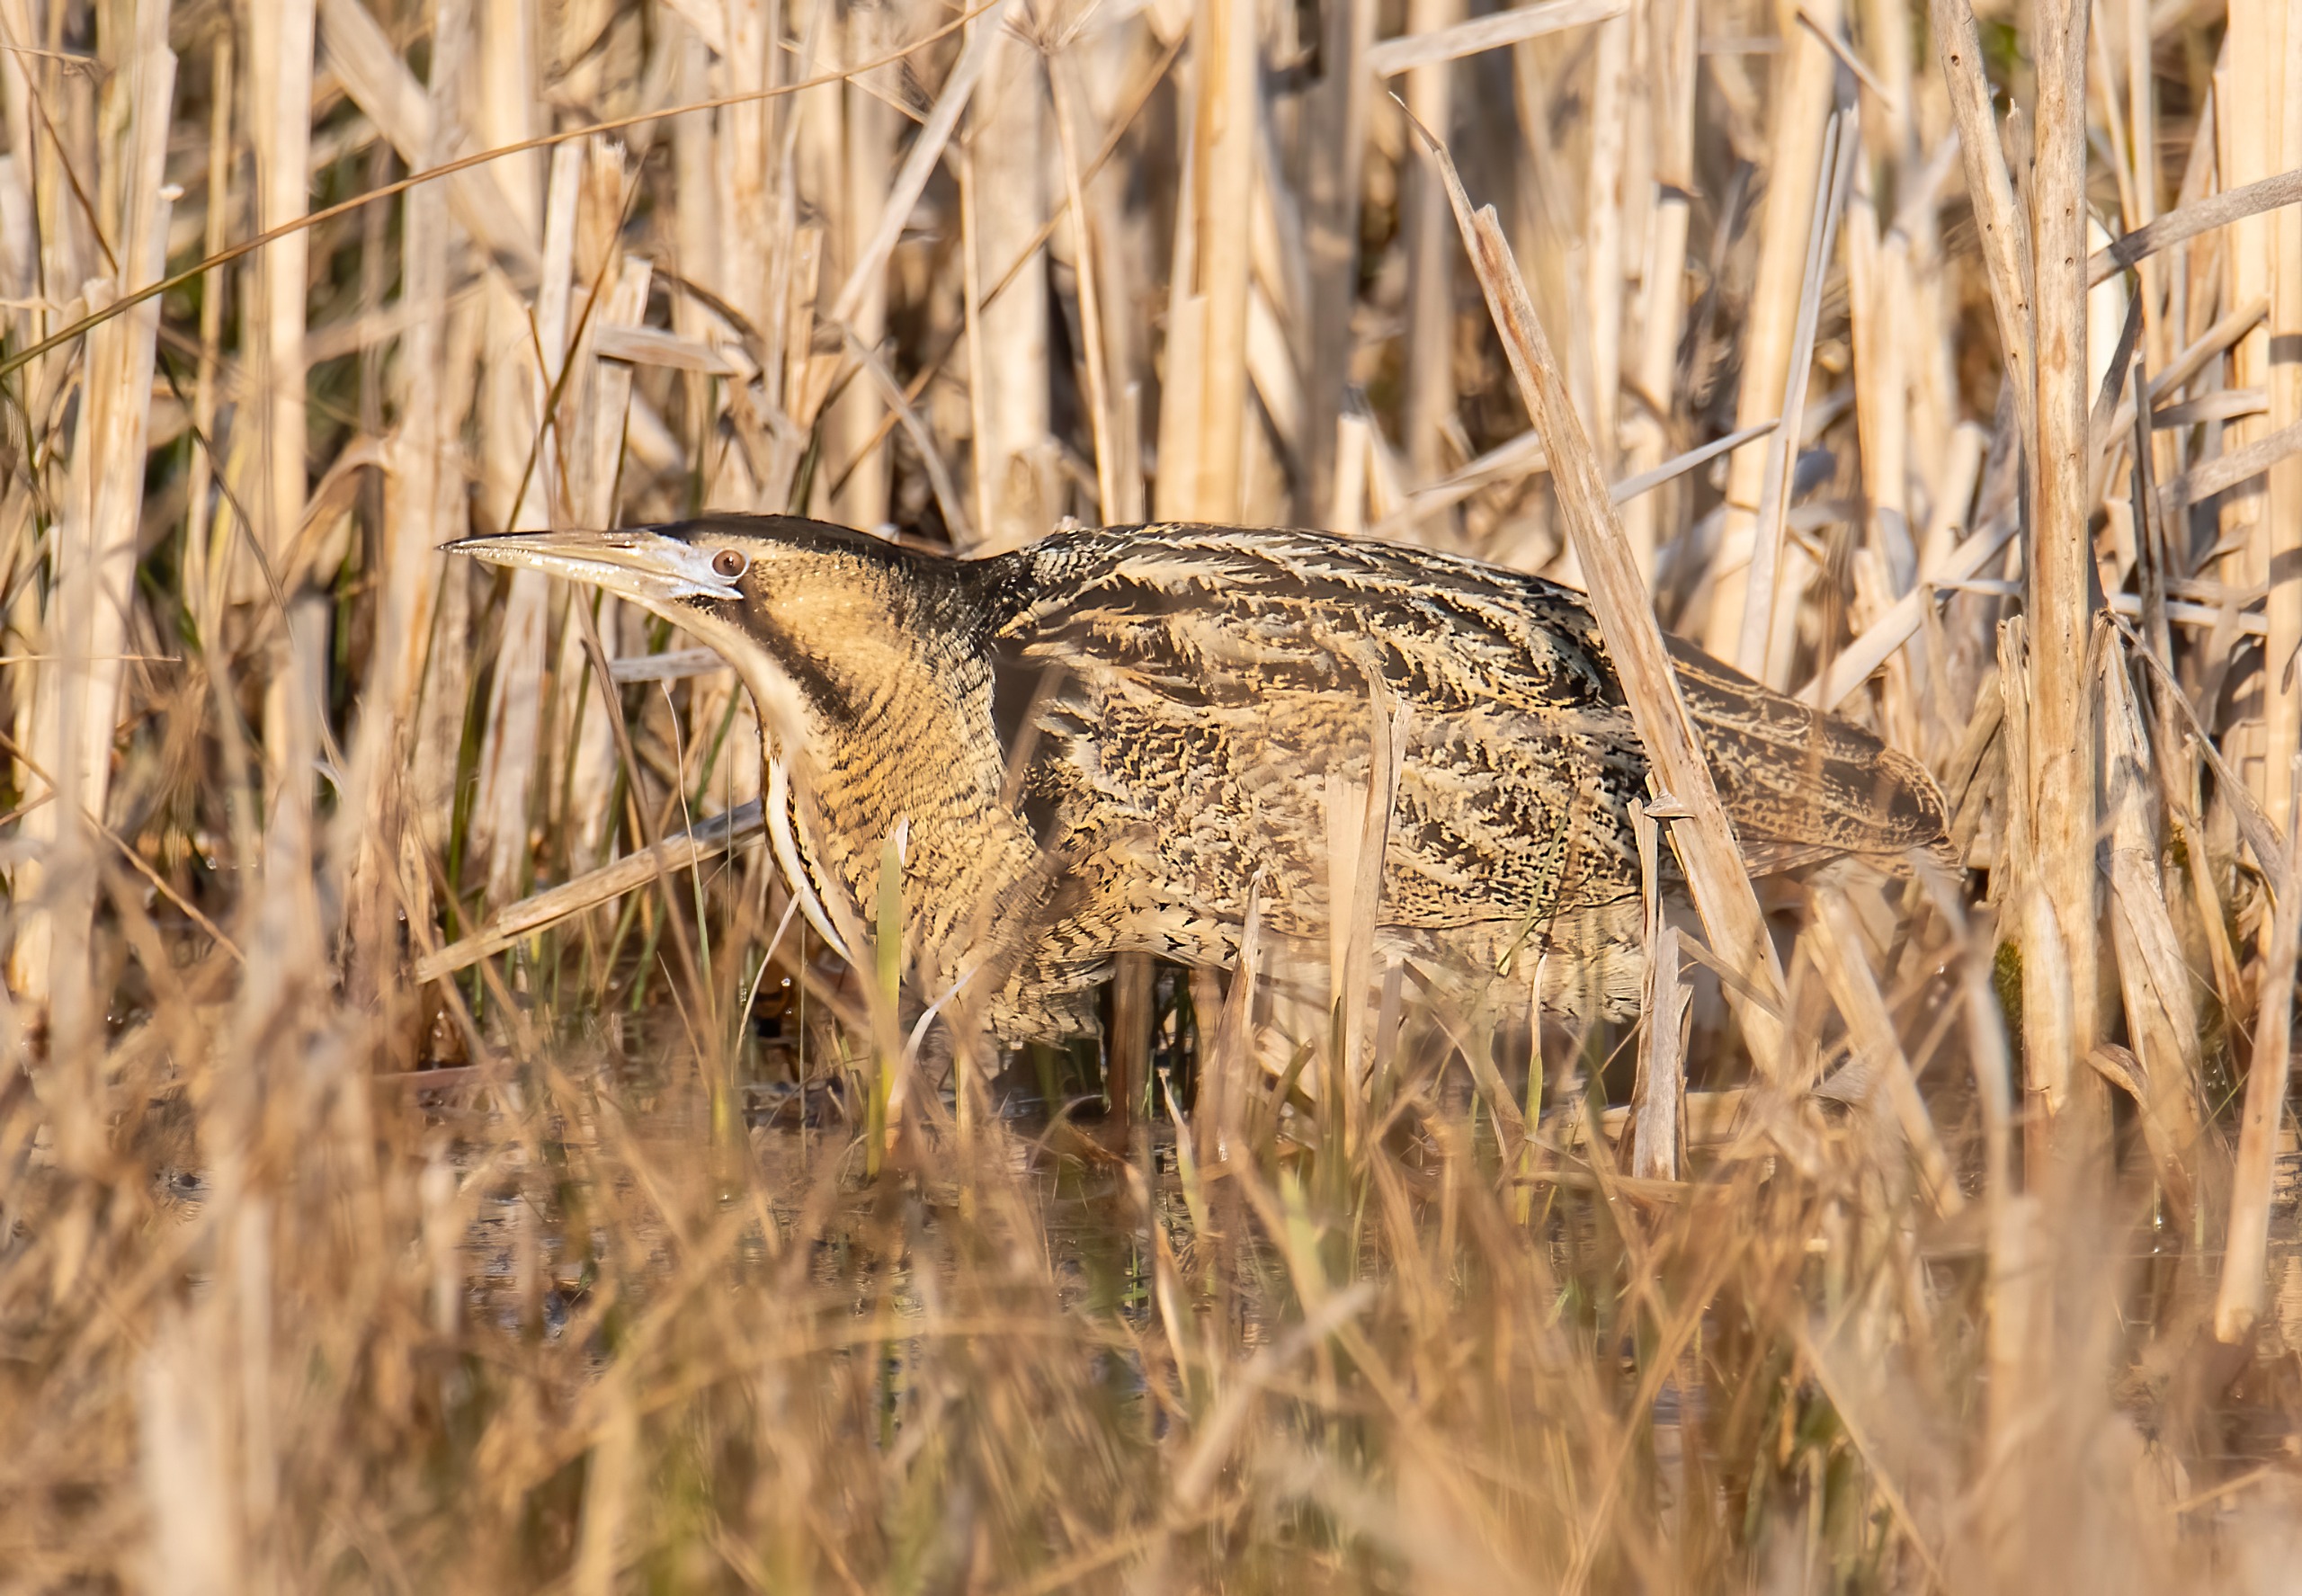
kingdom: Animalia
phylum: Chordata
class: Aves
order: Pelecaniformes
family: Ardeidae
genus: Botaurus
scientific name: Botaurus stellaris
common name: Rørdrum
